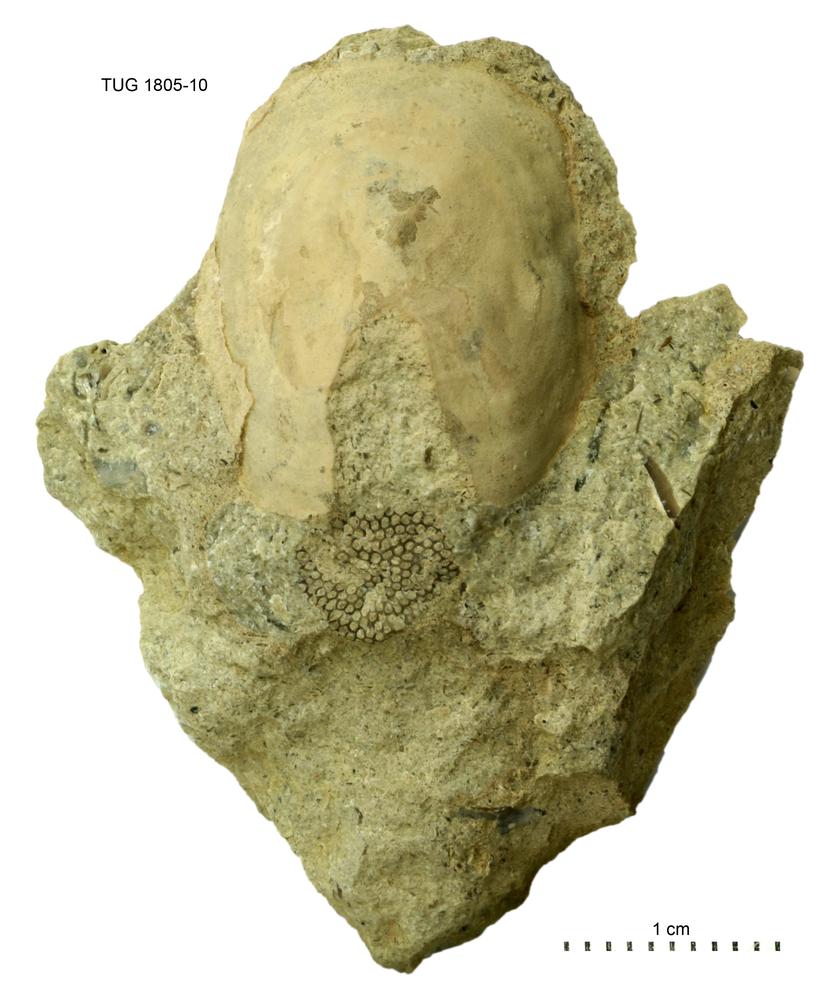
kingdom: Animalia
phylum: Mollusca
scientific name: Mollusca
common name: Mollusca
